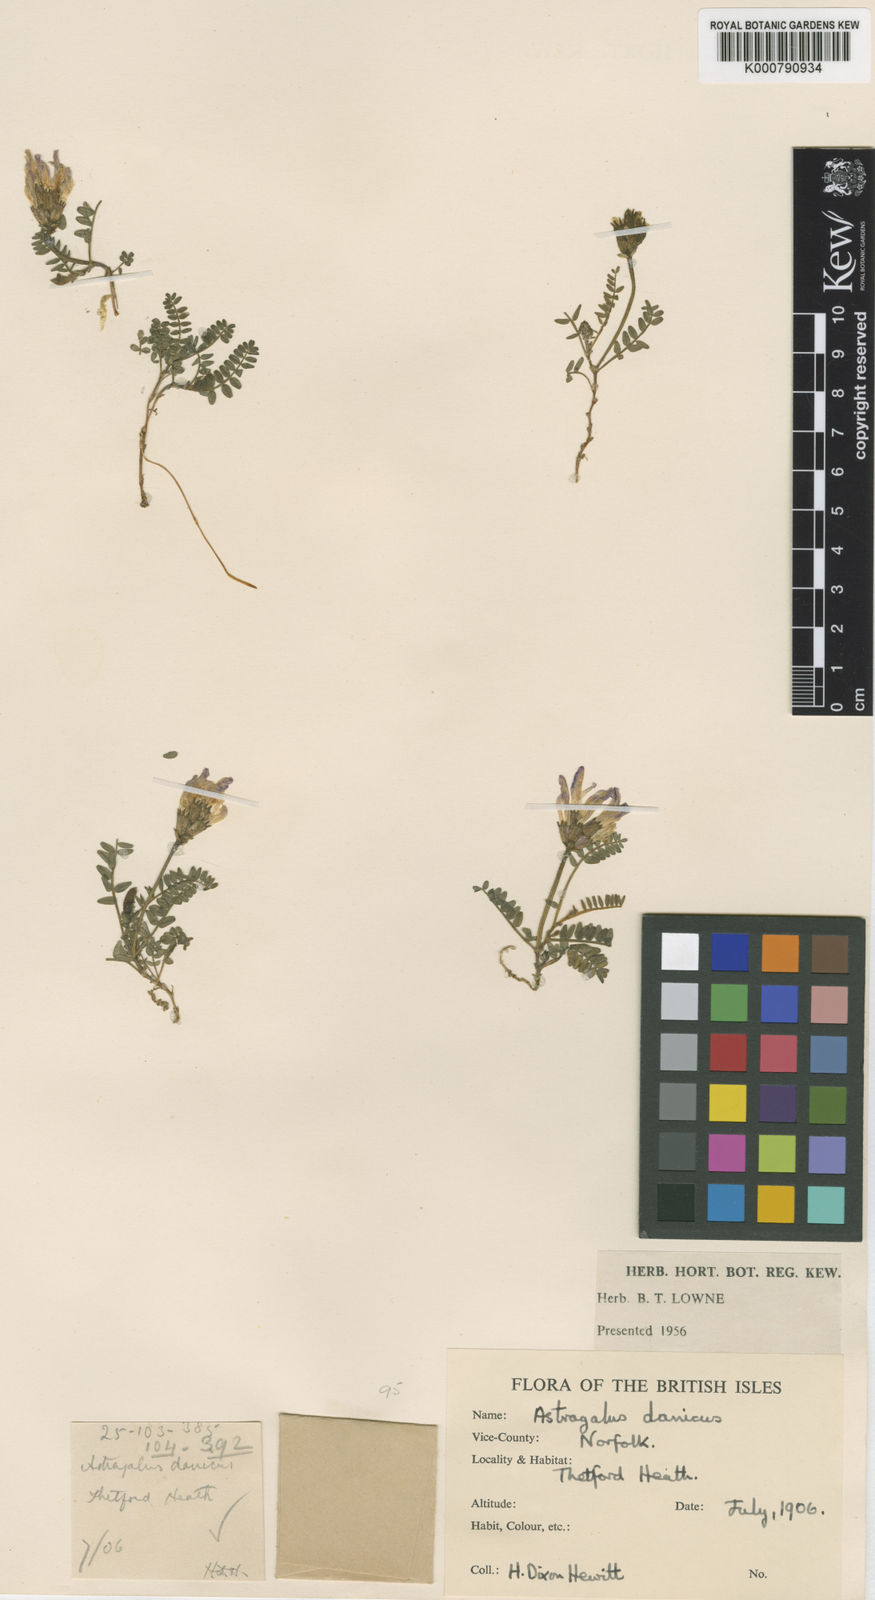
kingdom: Plantae
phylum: Tracheophyta
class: Magnoliopsida
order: Fabales
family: Fabaceae
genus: Astragalus
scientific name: Astragalus danicus
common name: Purple milk-vetch
